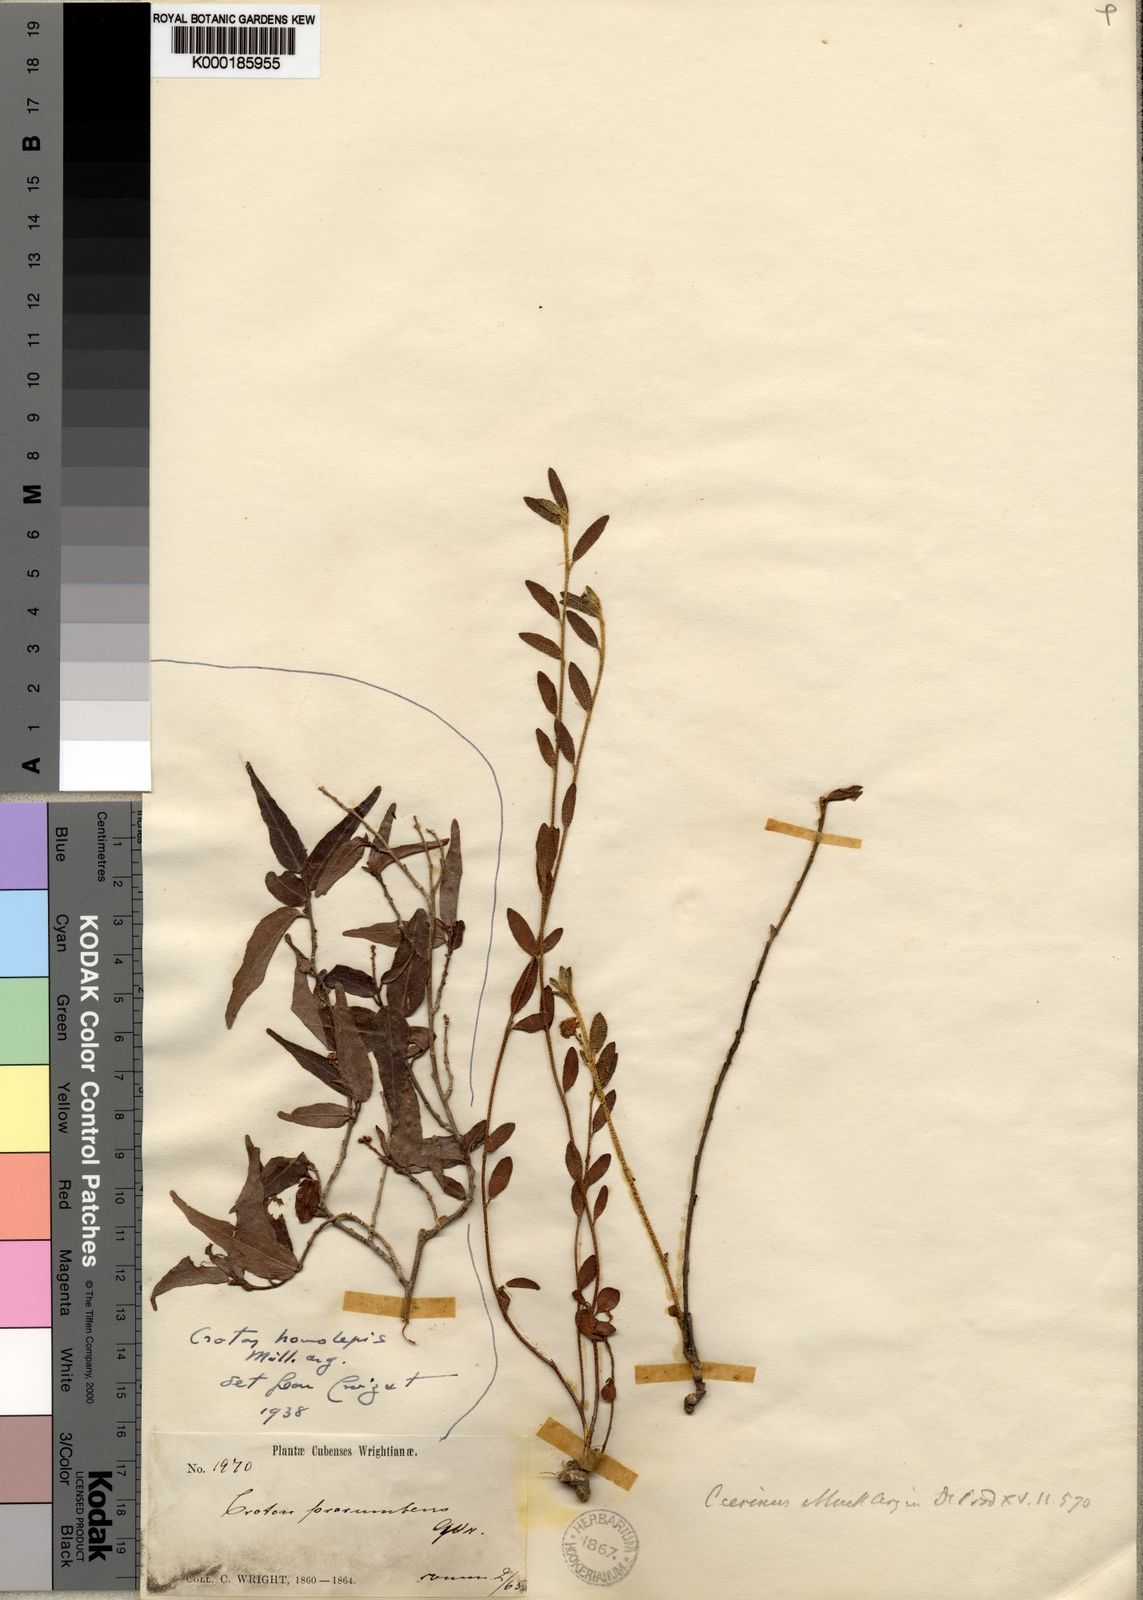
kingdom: Plantae
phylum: Tracheophyta
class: Magnoliopsida
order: Malpighiales
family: Euphorbiaceae
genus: Croton
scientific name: Croton
